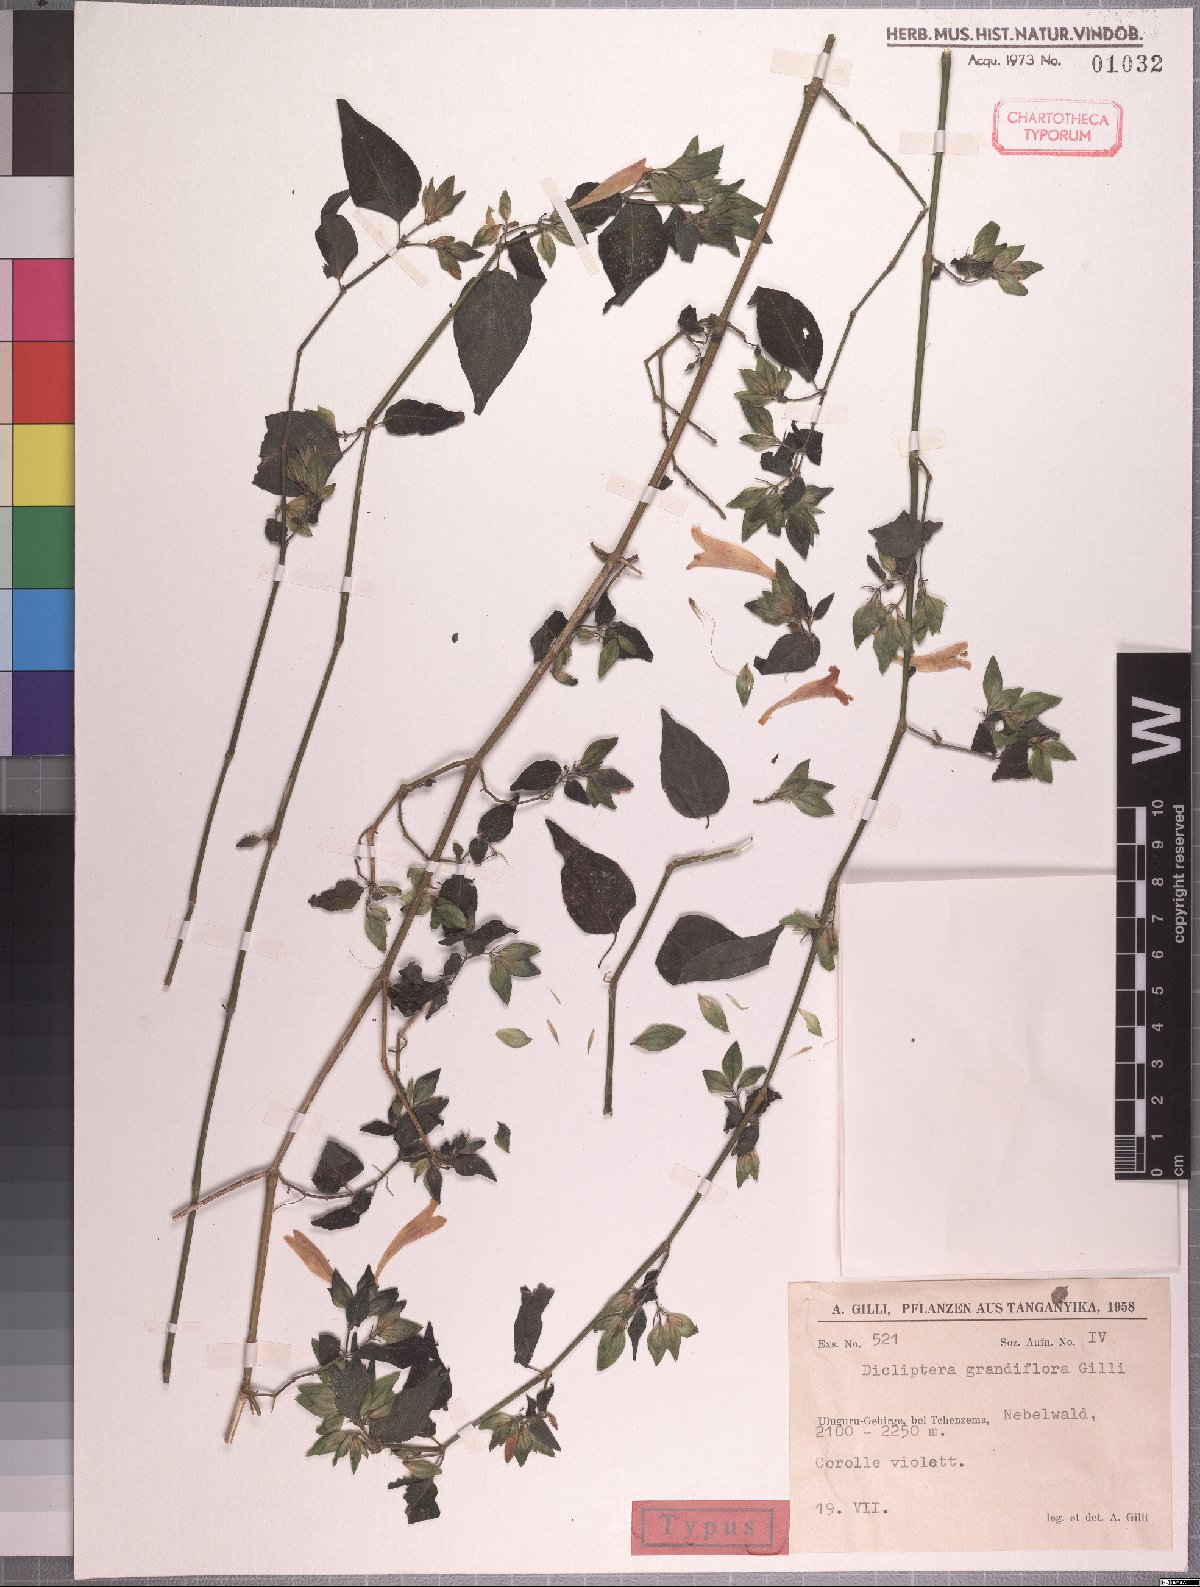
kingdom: Plantae
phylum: Tracheophyta
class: Magnoliopsida
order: Lamiales
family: Acanthaceae
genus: Dicliptera
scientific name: Dicliptera grandiflora
